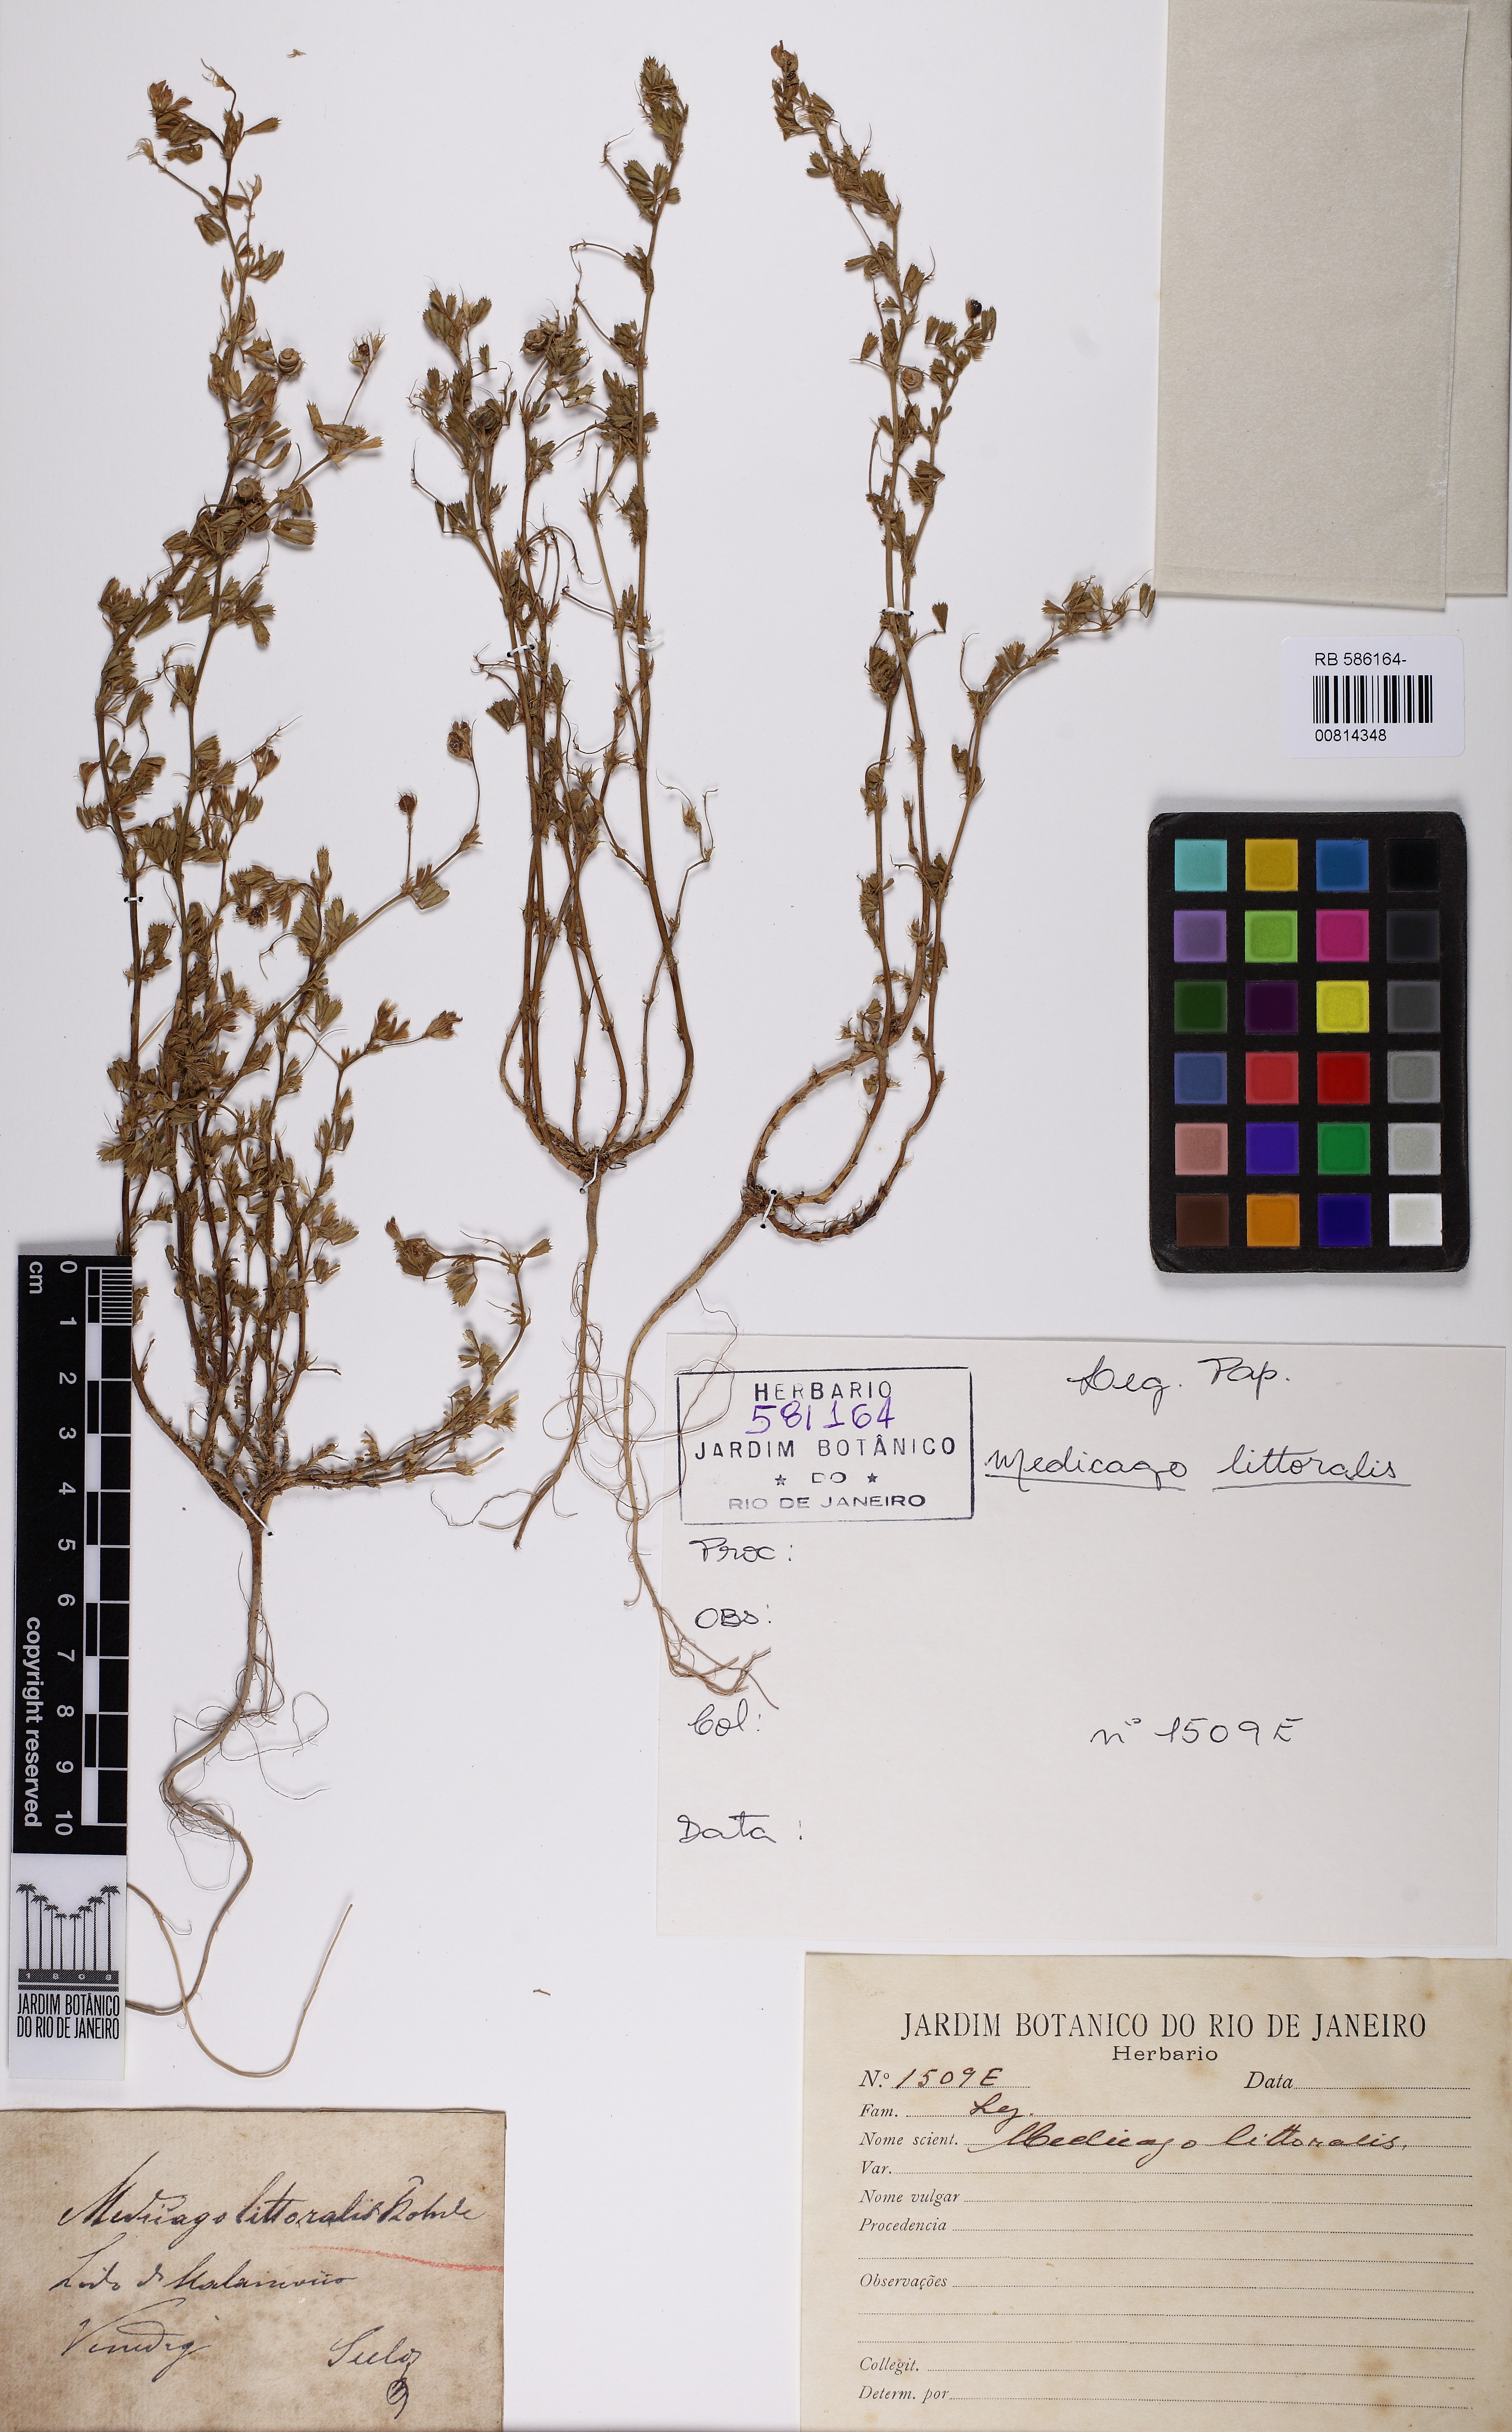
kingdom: Plantae
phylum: Tracheophyta
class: Magnoliopsida
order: Fabales
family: Fabaceae
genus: Medicago
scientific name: Medicago littoralis
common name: Shore medick
